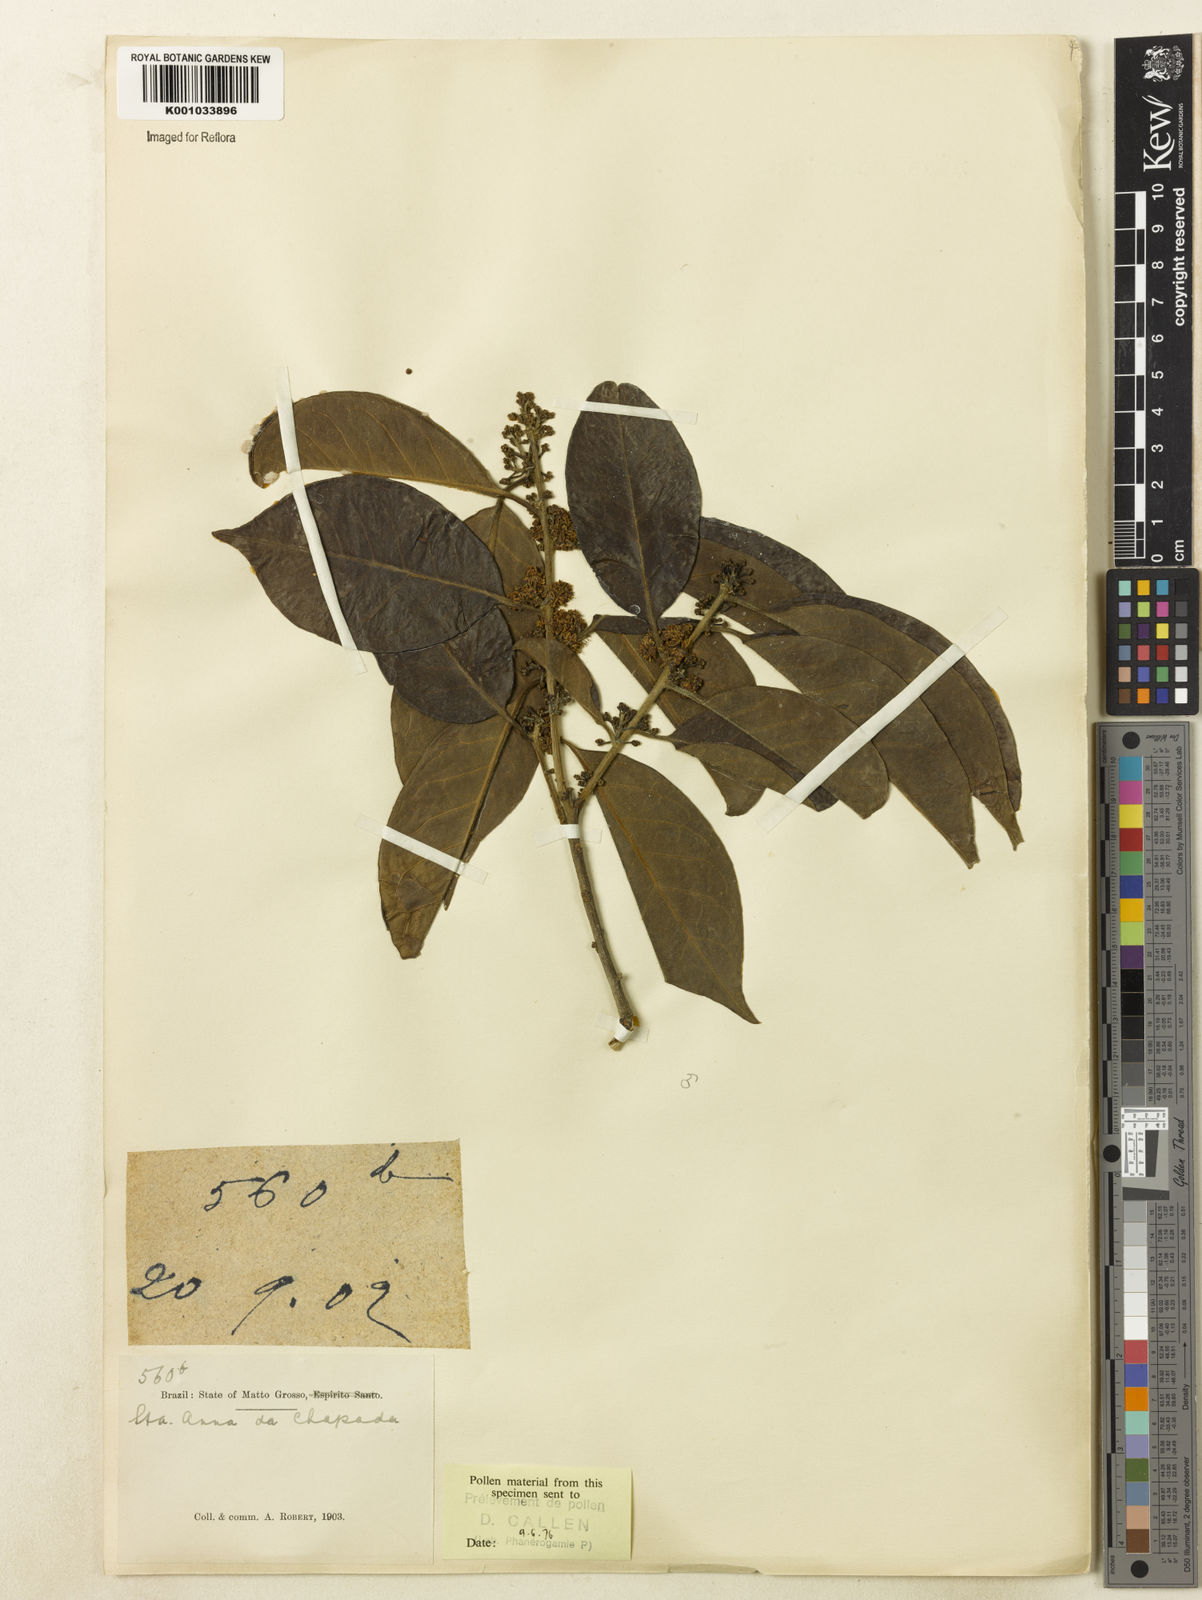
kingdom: Plantae
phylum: Tracheophyta
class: Magnoliopsida
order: Aquifoliales
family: Aquifoliaceae
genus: Ilex
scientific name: Ilex cerasifolia
